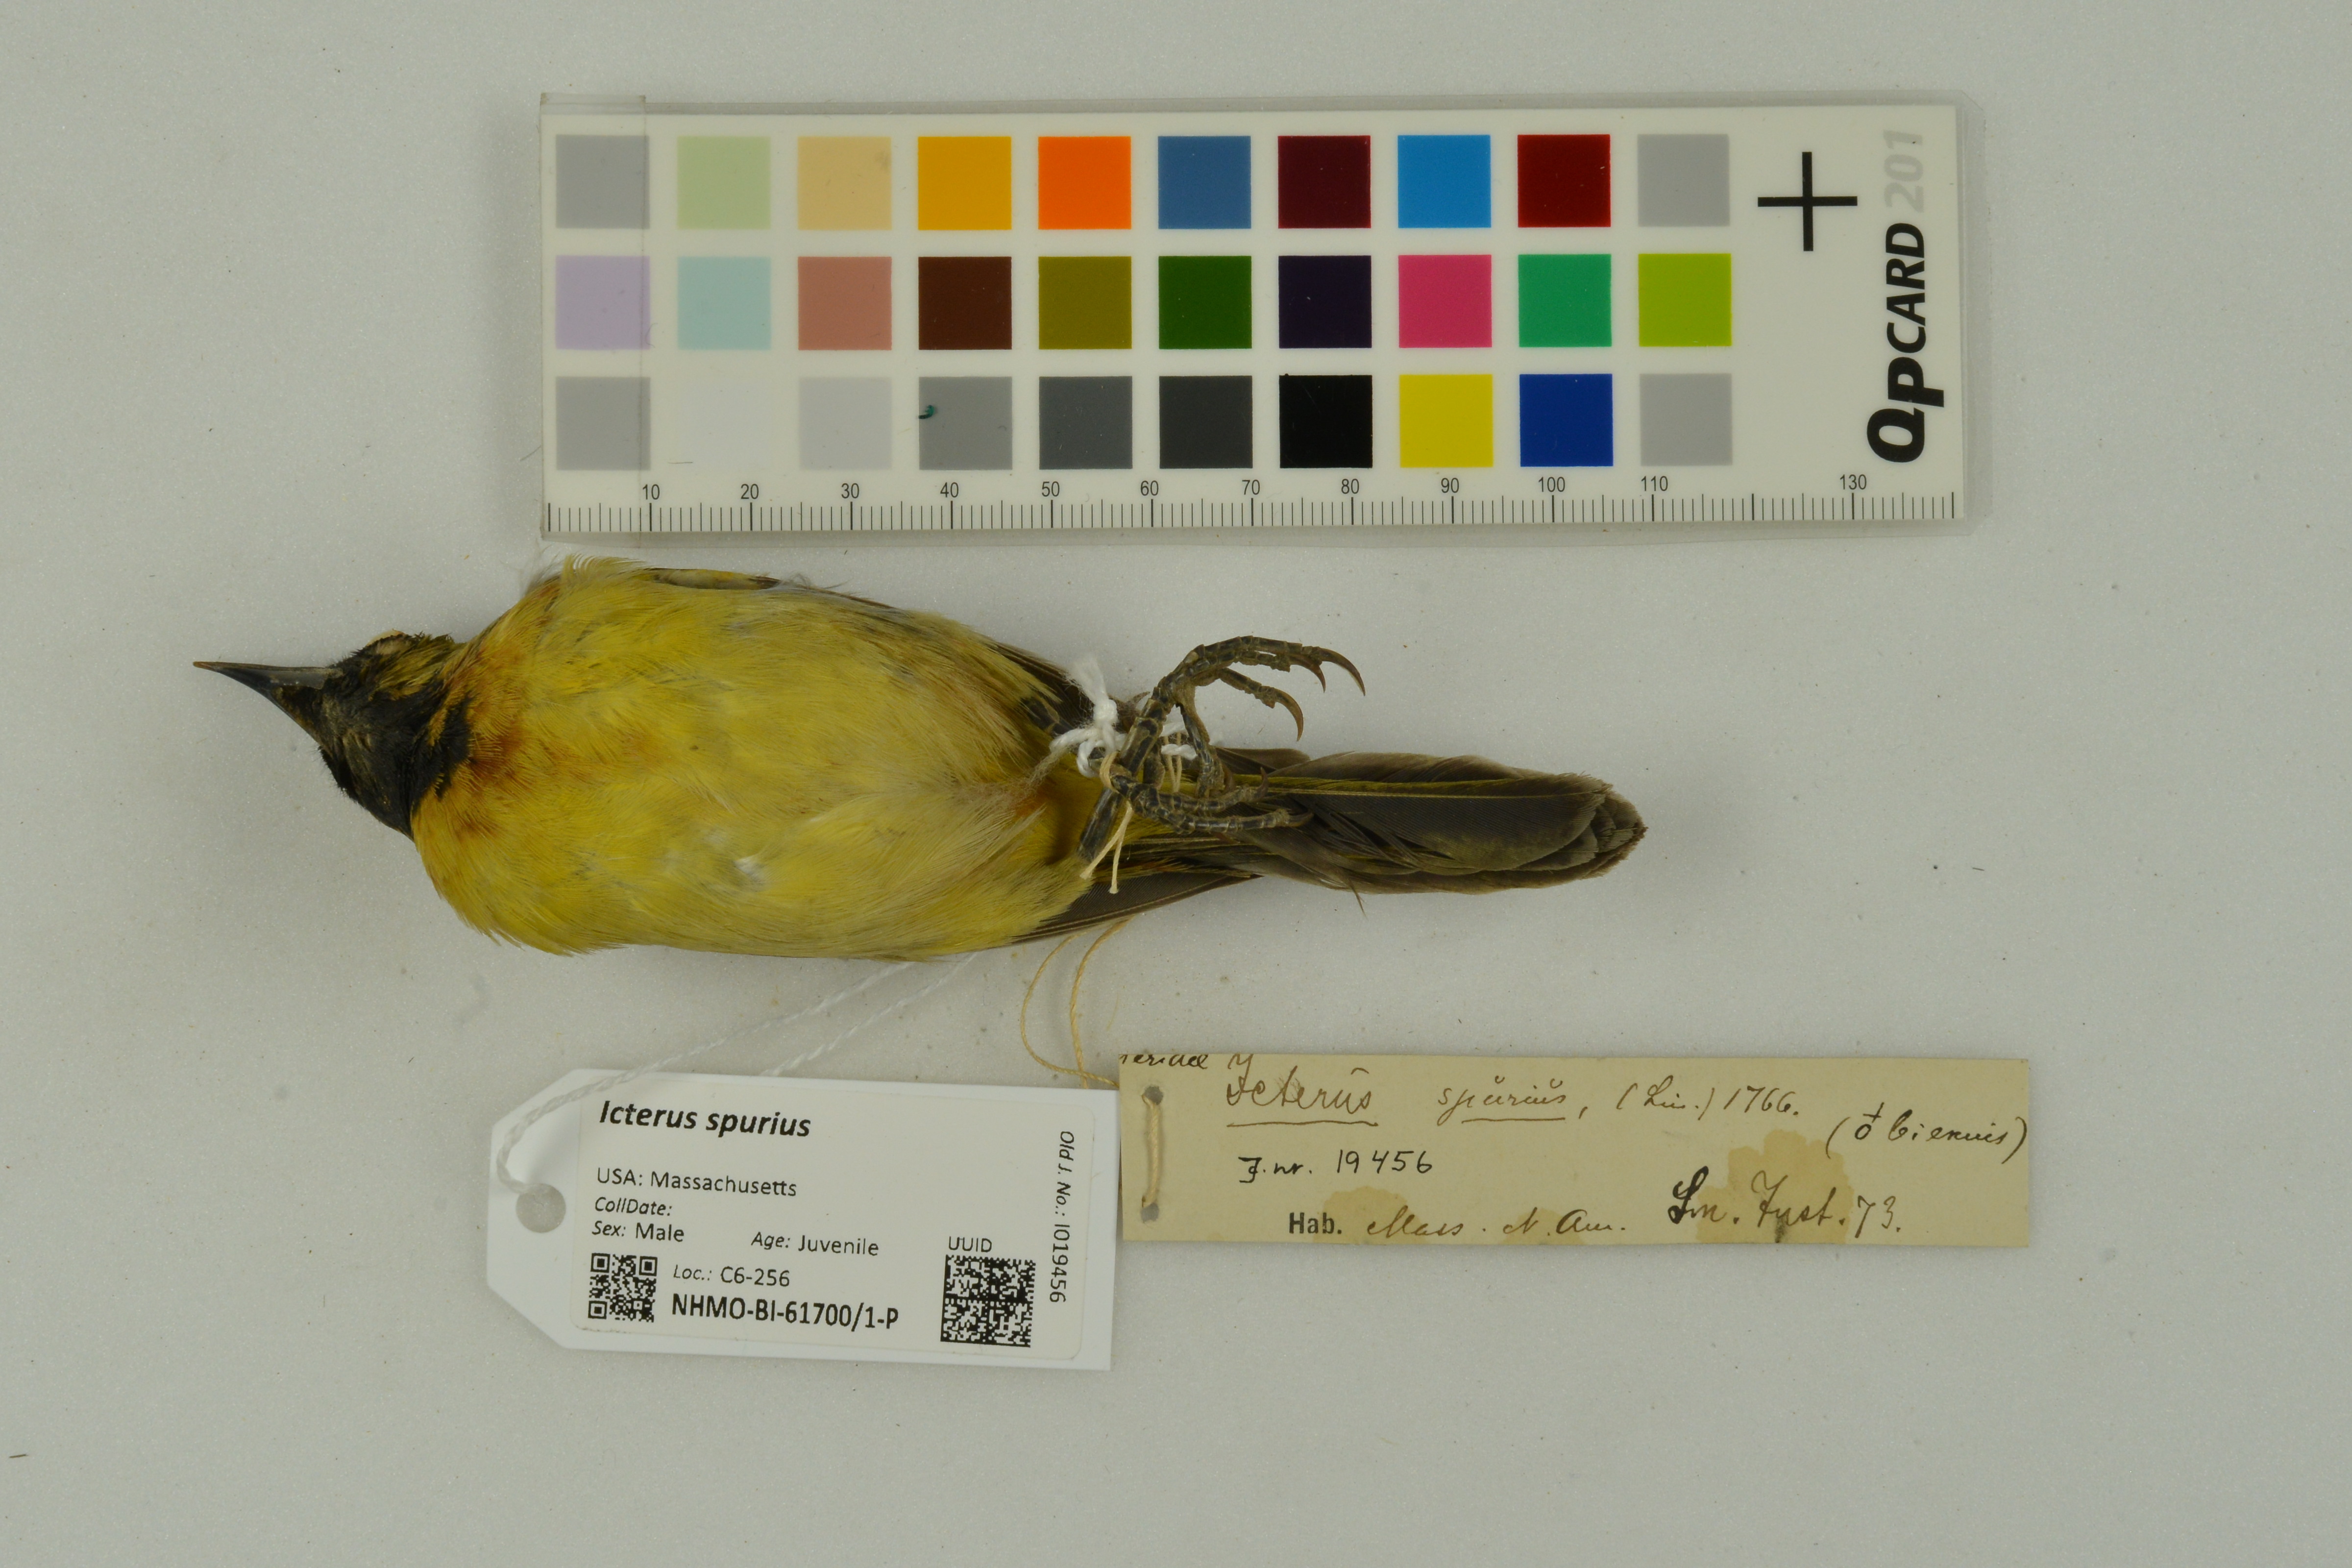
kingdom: Animalia
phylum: Chordata
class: Aves
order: Passeriformes
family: Icteridae
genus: Icterus
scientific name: Icterus spurius
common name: Orchard oriole
